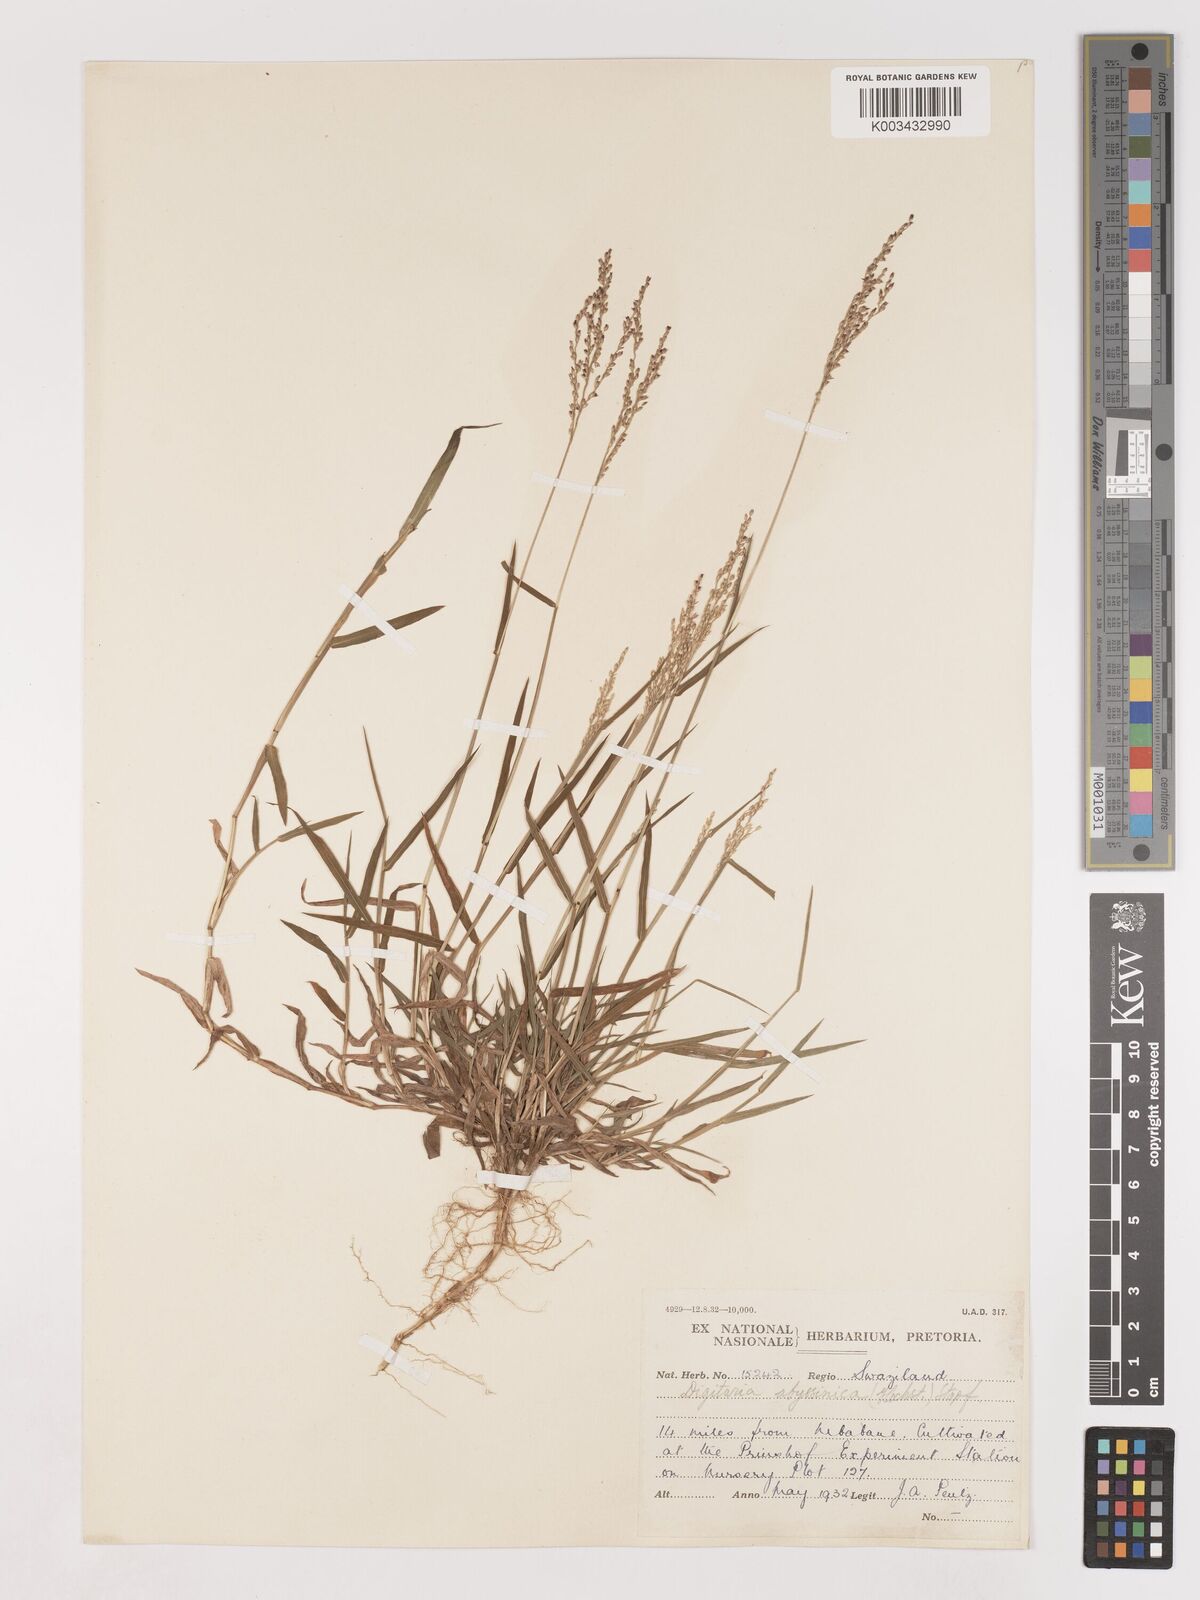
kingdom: Plantae
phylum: Tracheophyta
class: Liliopsida
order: Poales
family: Poaceae
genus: Digitaria
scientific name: Digitaria abyssinica
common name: African couchgrass
